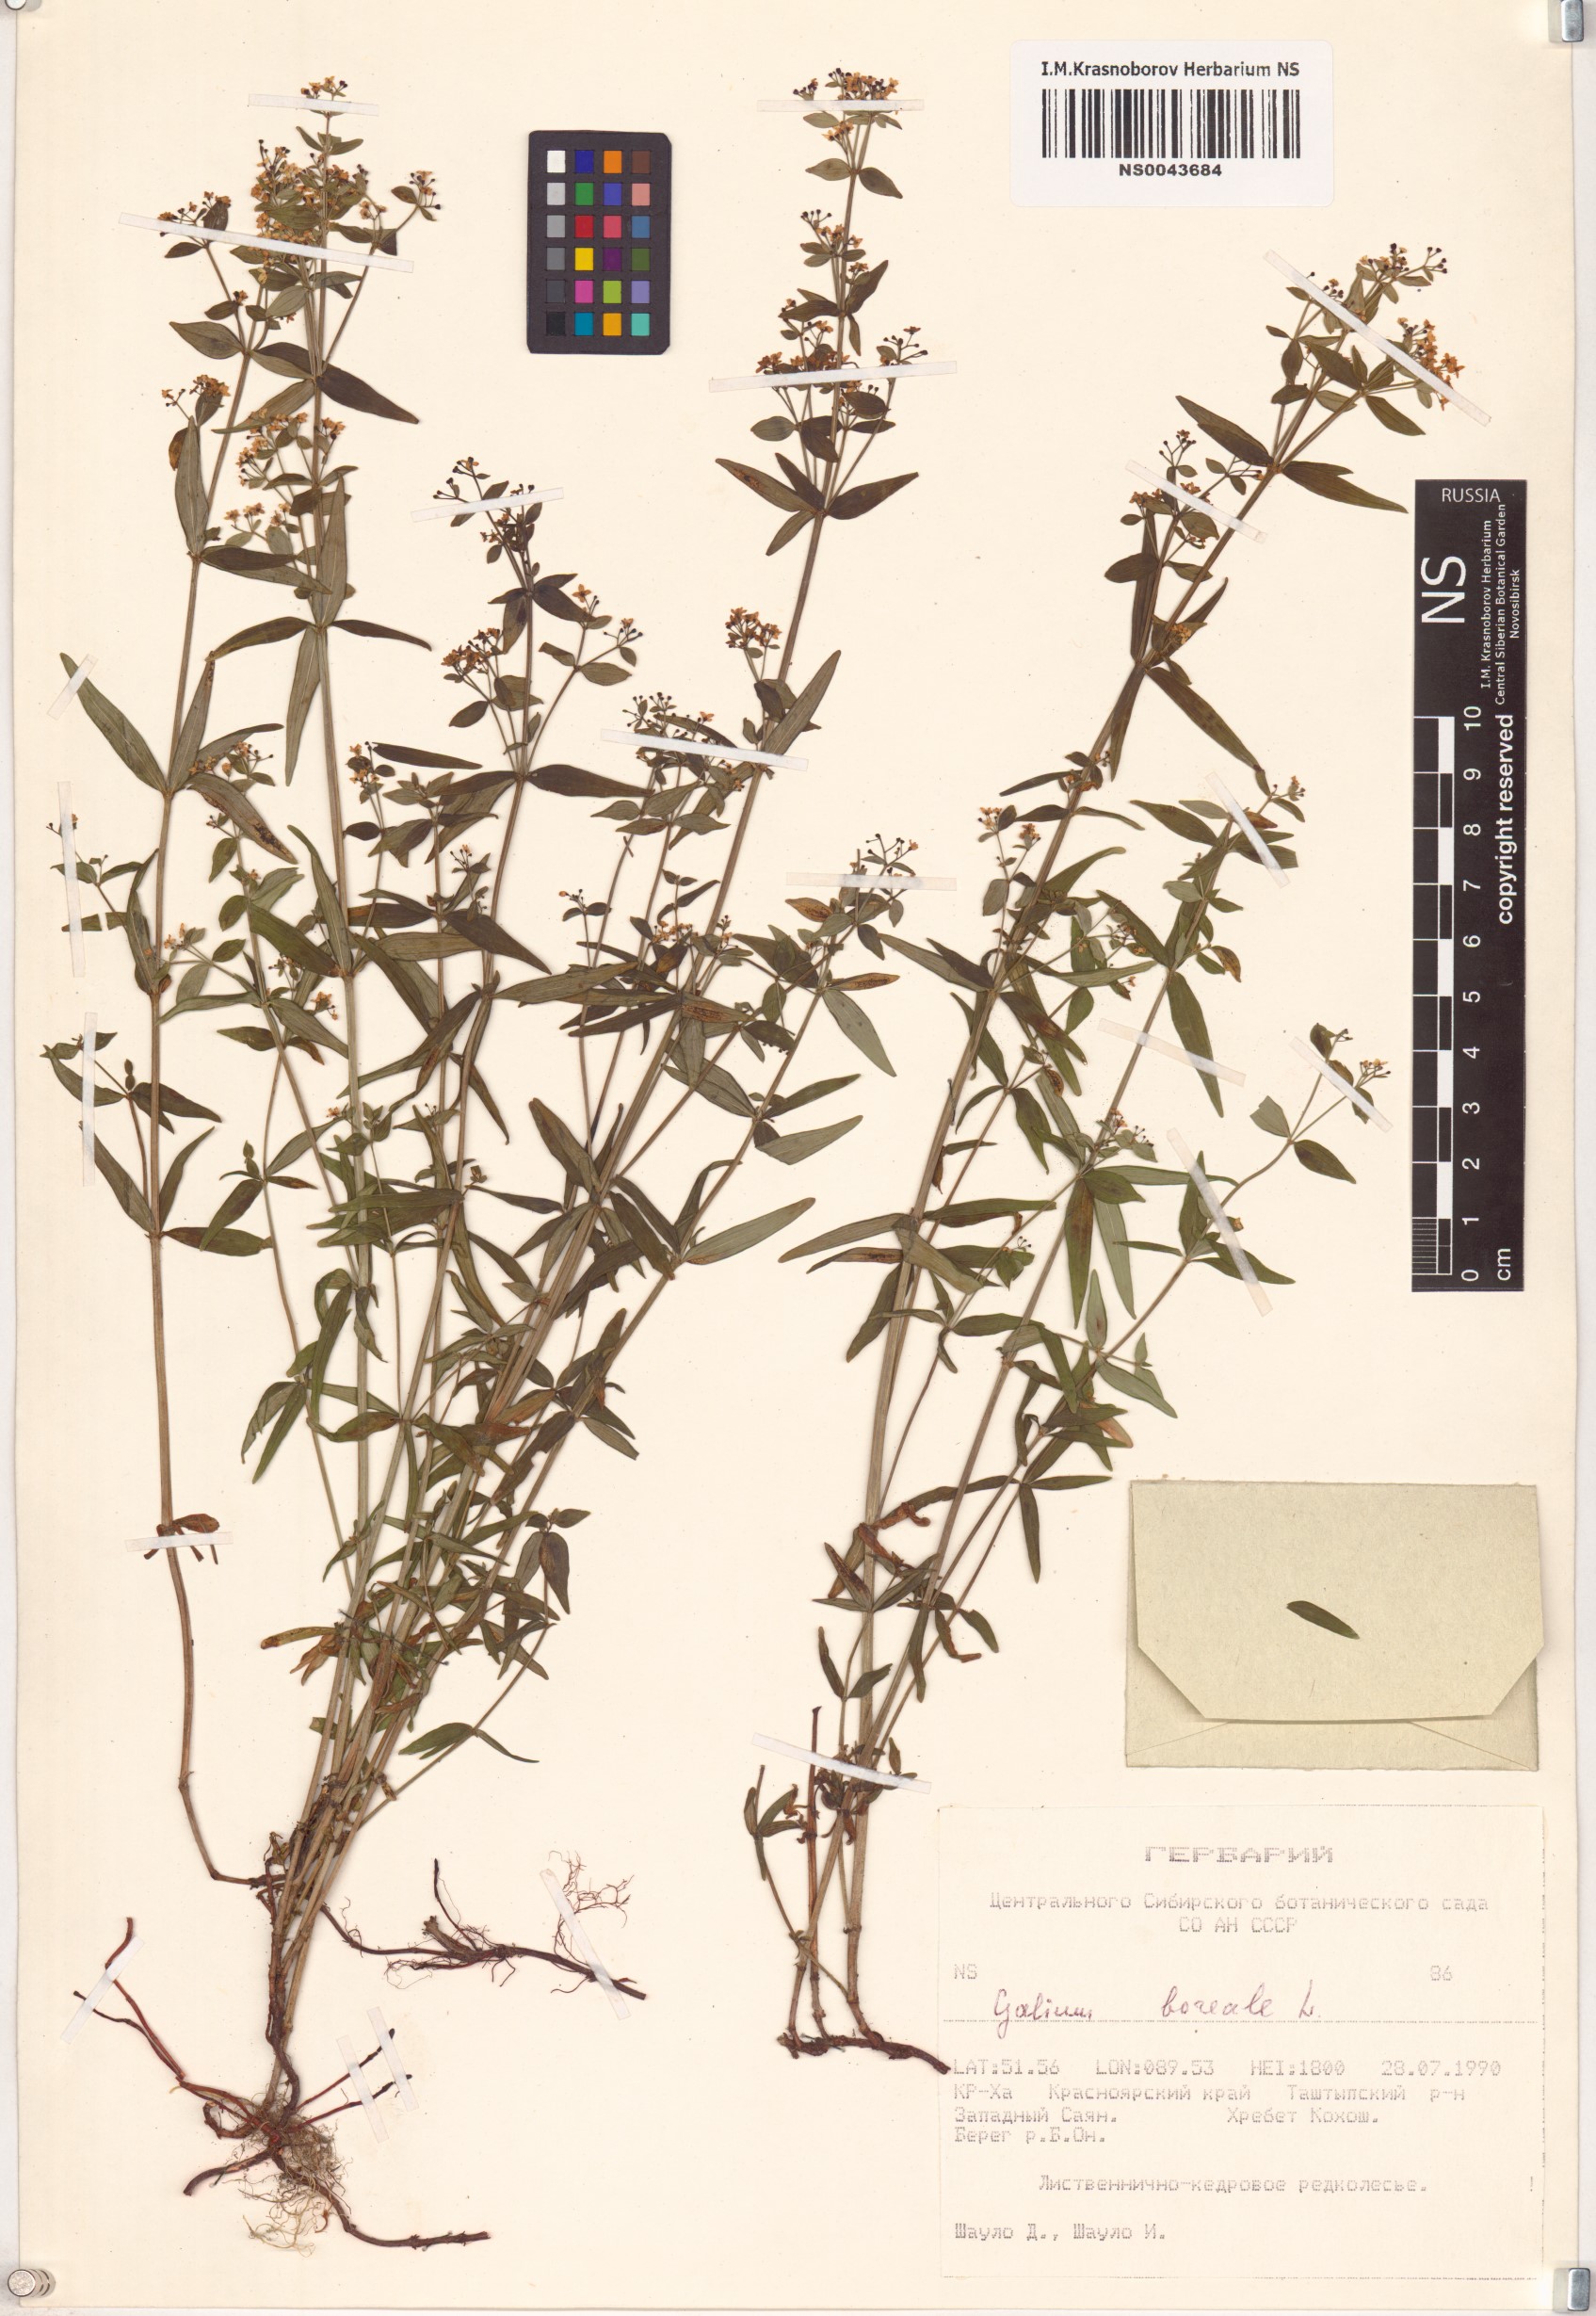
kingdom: Plantae
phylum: Tracheophyta
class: Magnoliopsida
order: Gentianales
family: Rubiaceae
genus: Galium
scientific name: Galium boreale
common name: Northern bedstraw
